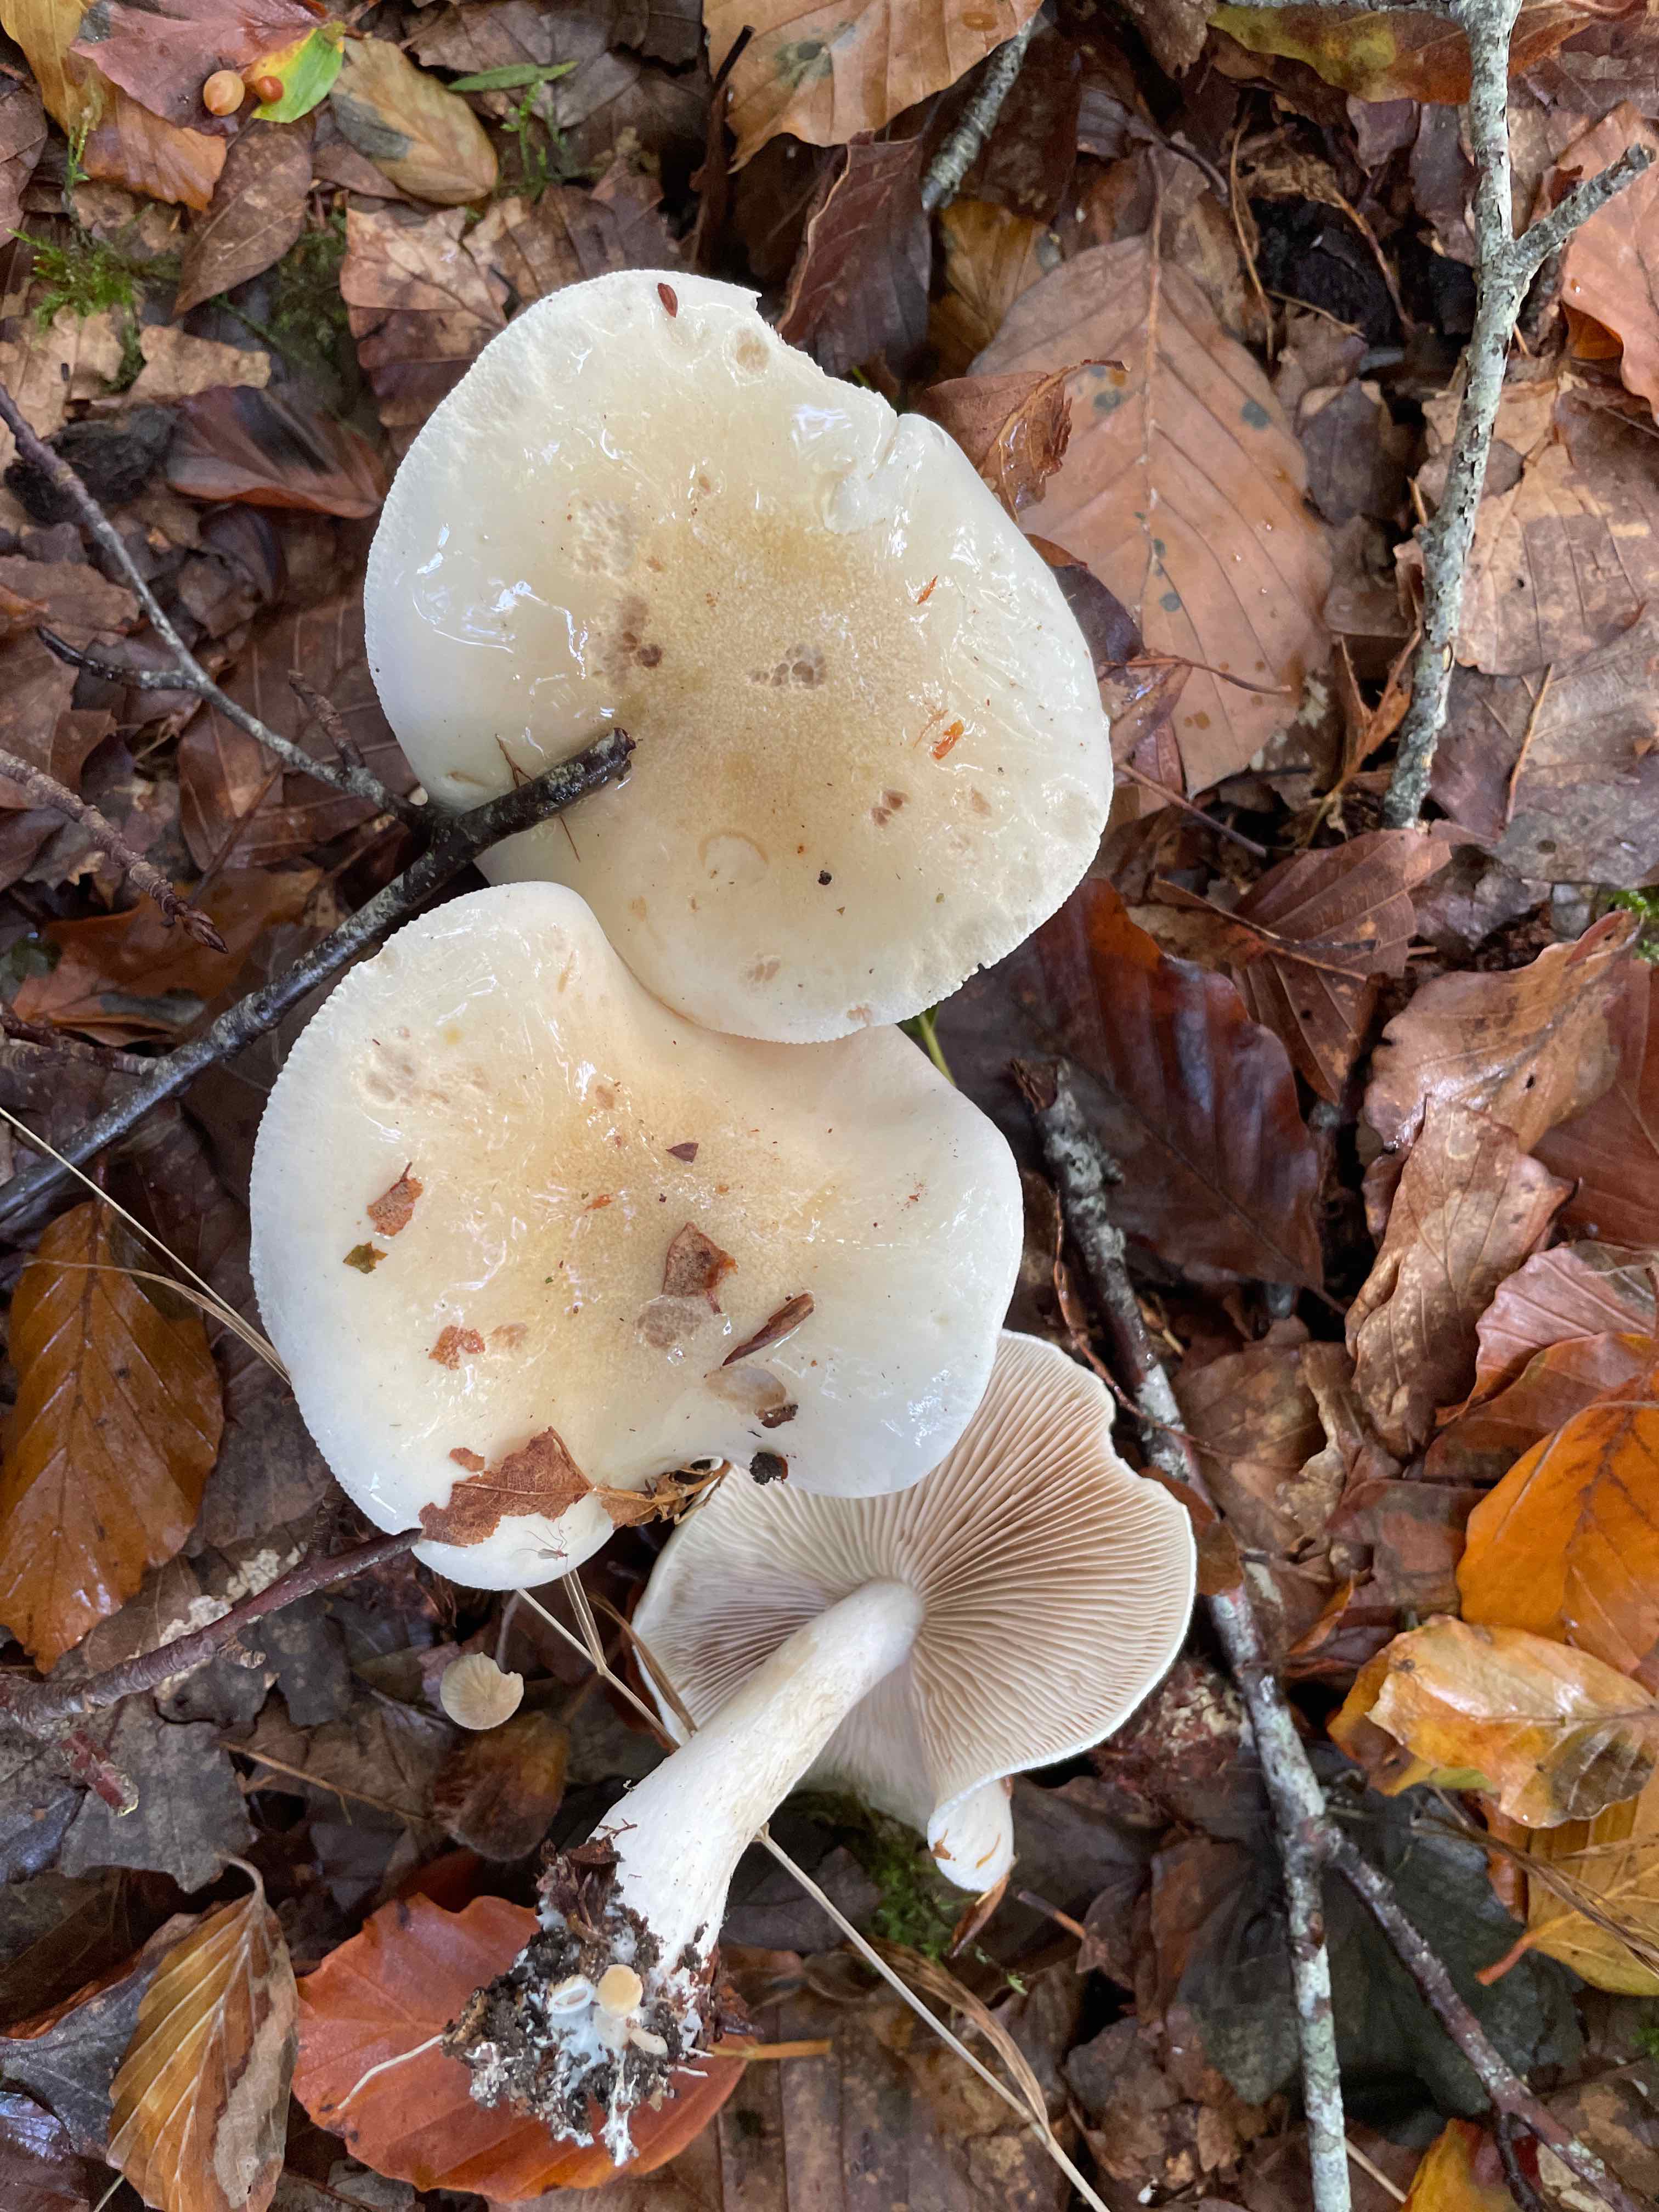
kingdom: Fungi
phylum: Basidiomycota
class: Agaricomycetes
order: Agaricales
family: Tricholomataceae
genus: Tricholoma
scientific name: Tricholoma lascivum
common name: stinkende ridderhat
